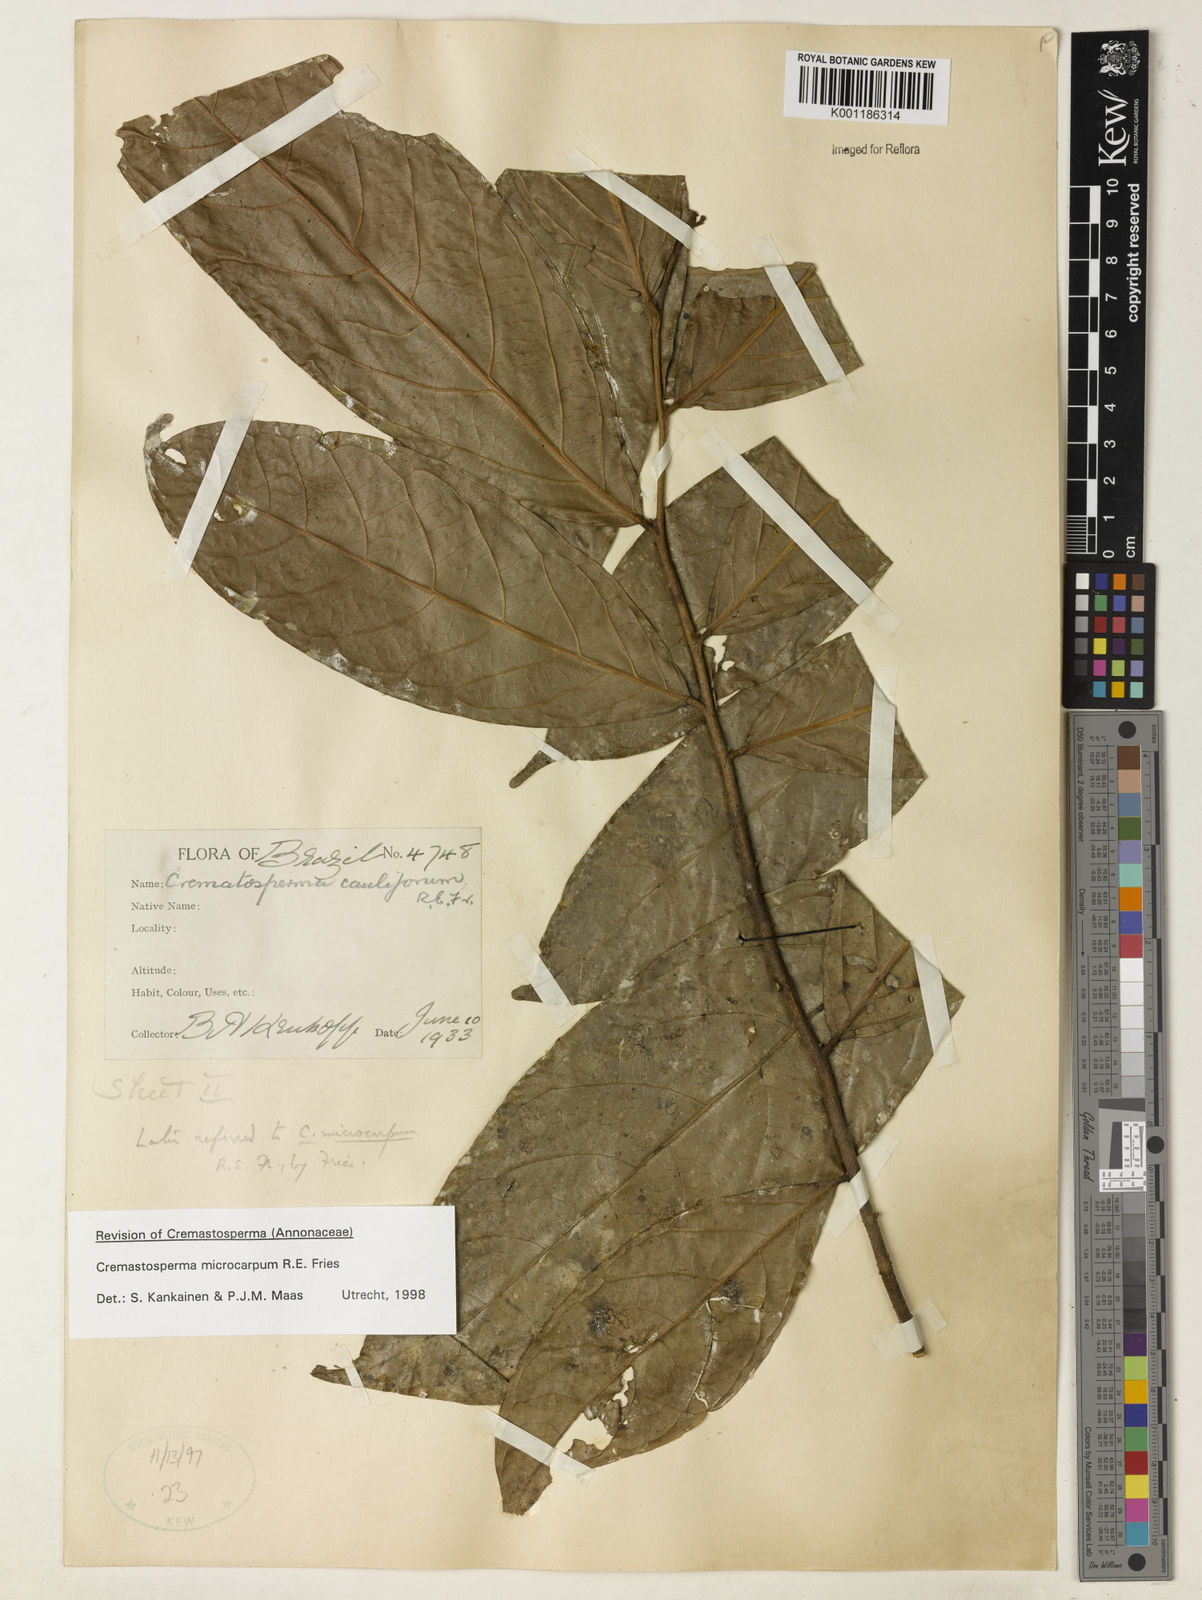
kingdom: Plantae
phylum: Tracheophyta
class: Magnoliopsida
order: Magnoliales
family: Annonaceae
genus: Cremastosperma
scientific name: Cremastosperma microcarpum
